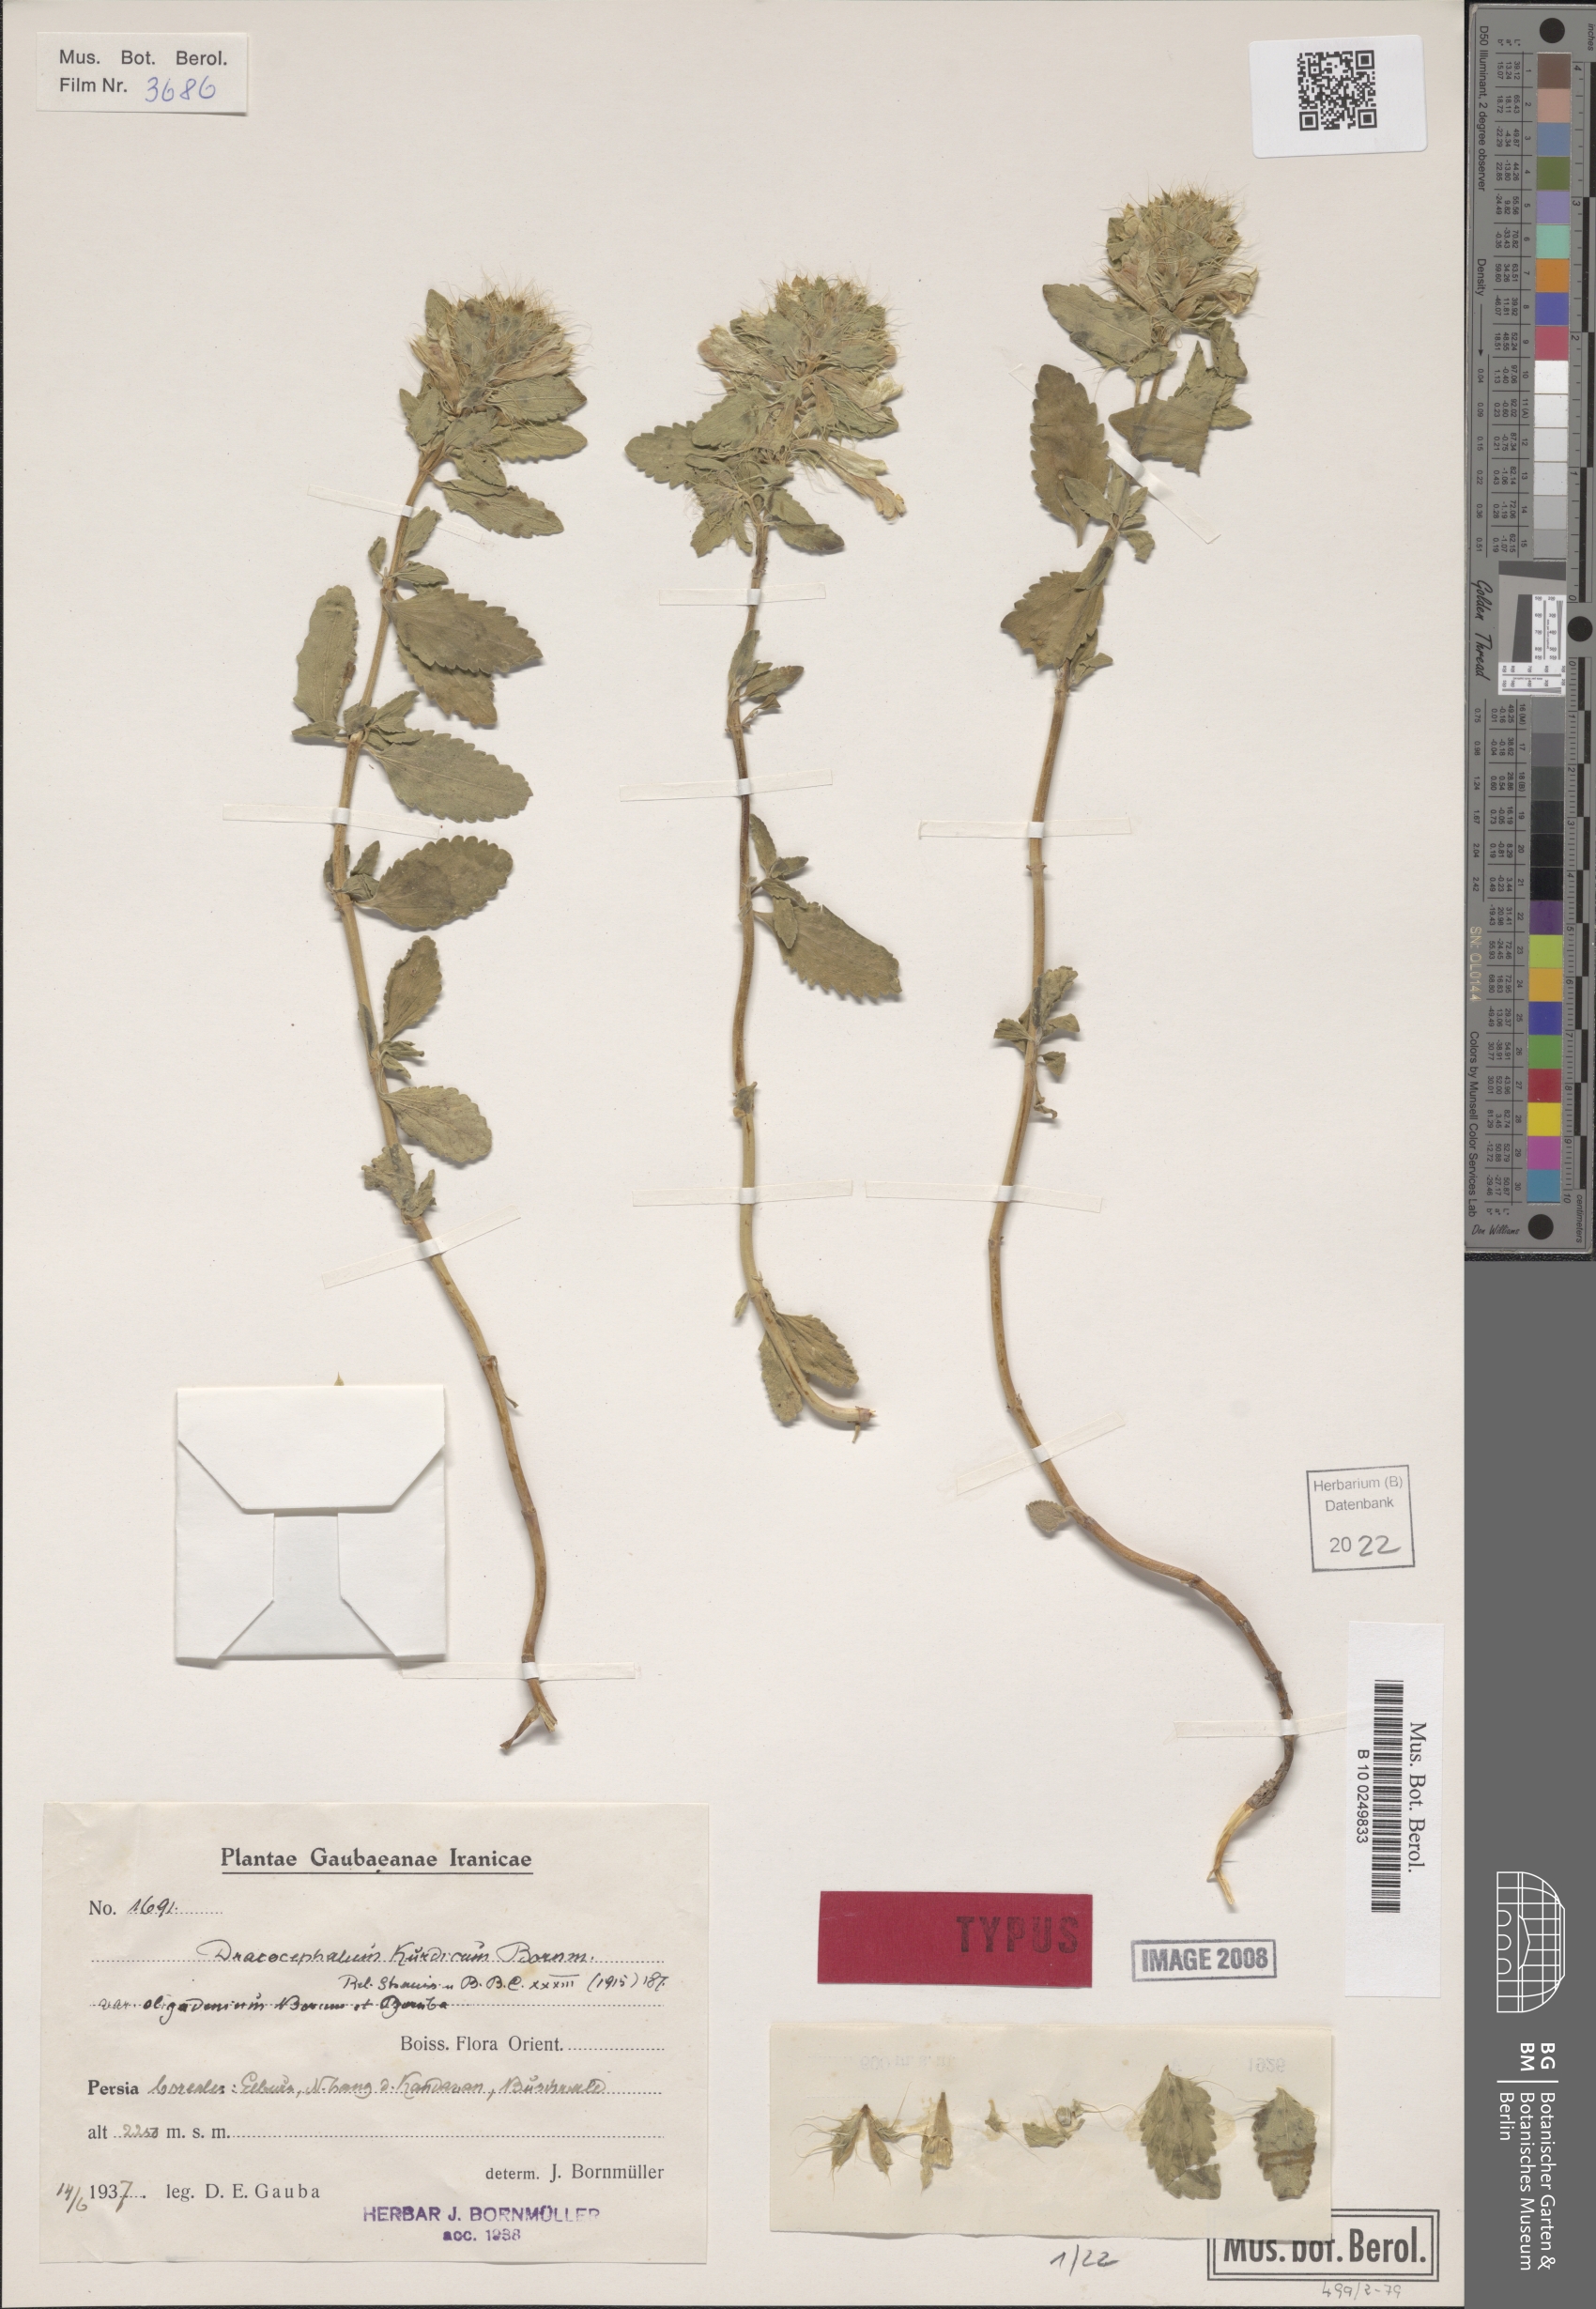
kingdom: Plantae
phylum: Tracheophyta
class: Magnoliopsida
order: Lamiales
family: Lamiaceae
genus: Dracocephalum
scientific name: Dracocephalum kotschyi
